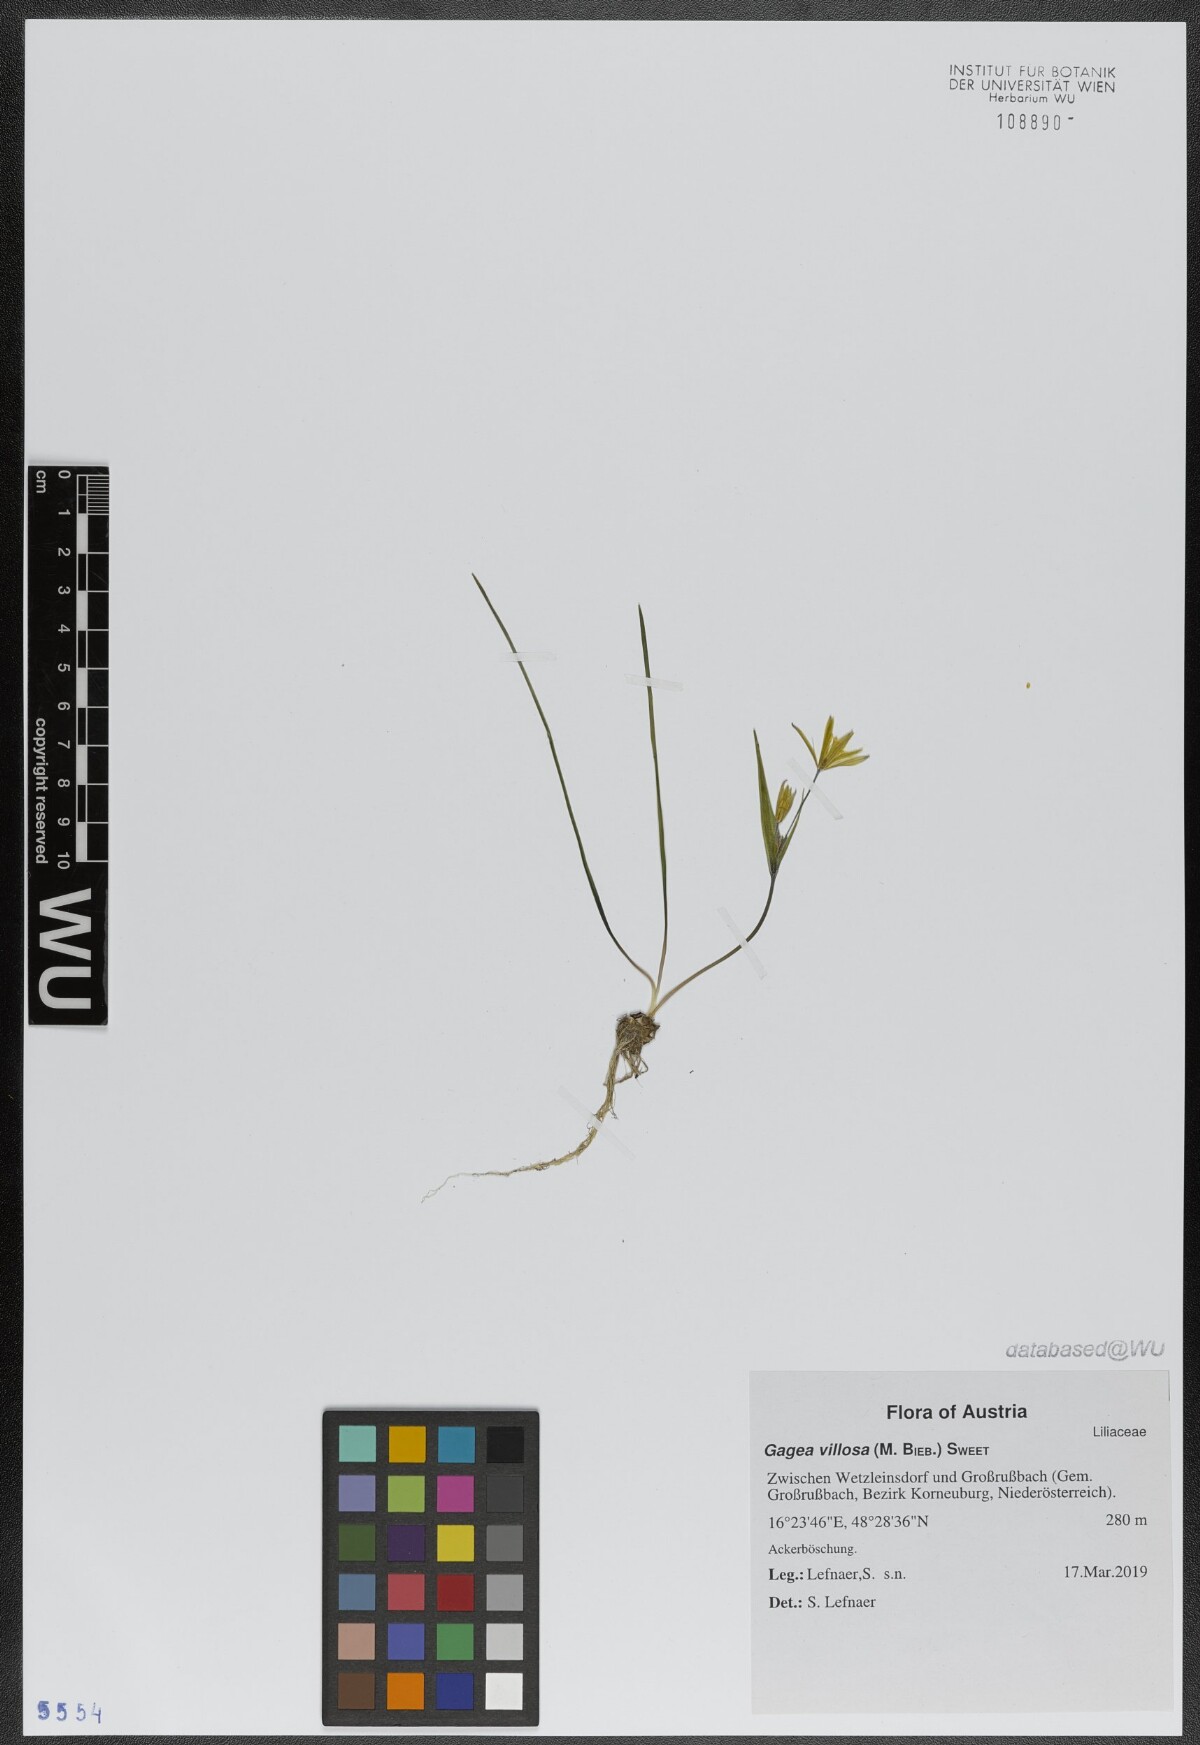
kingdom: Plantae
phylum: Tracheophyta
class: Liliopsida
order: Liliales
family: Liliaceae
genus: Gagea
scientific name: Gagea villosa
